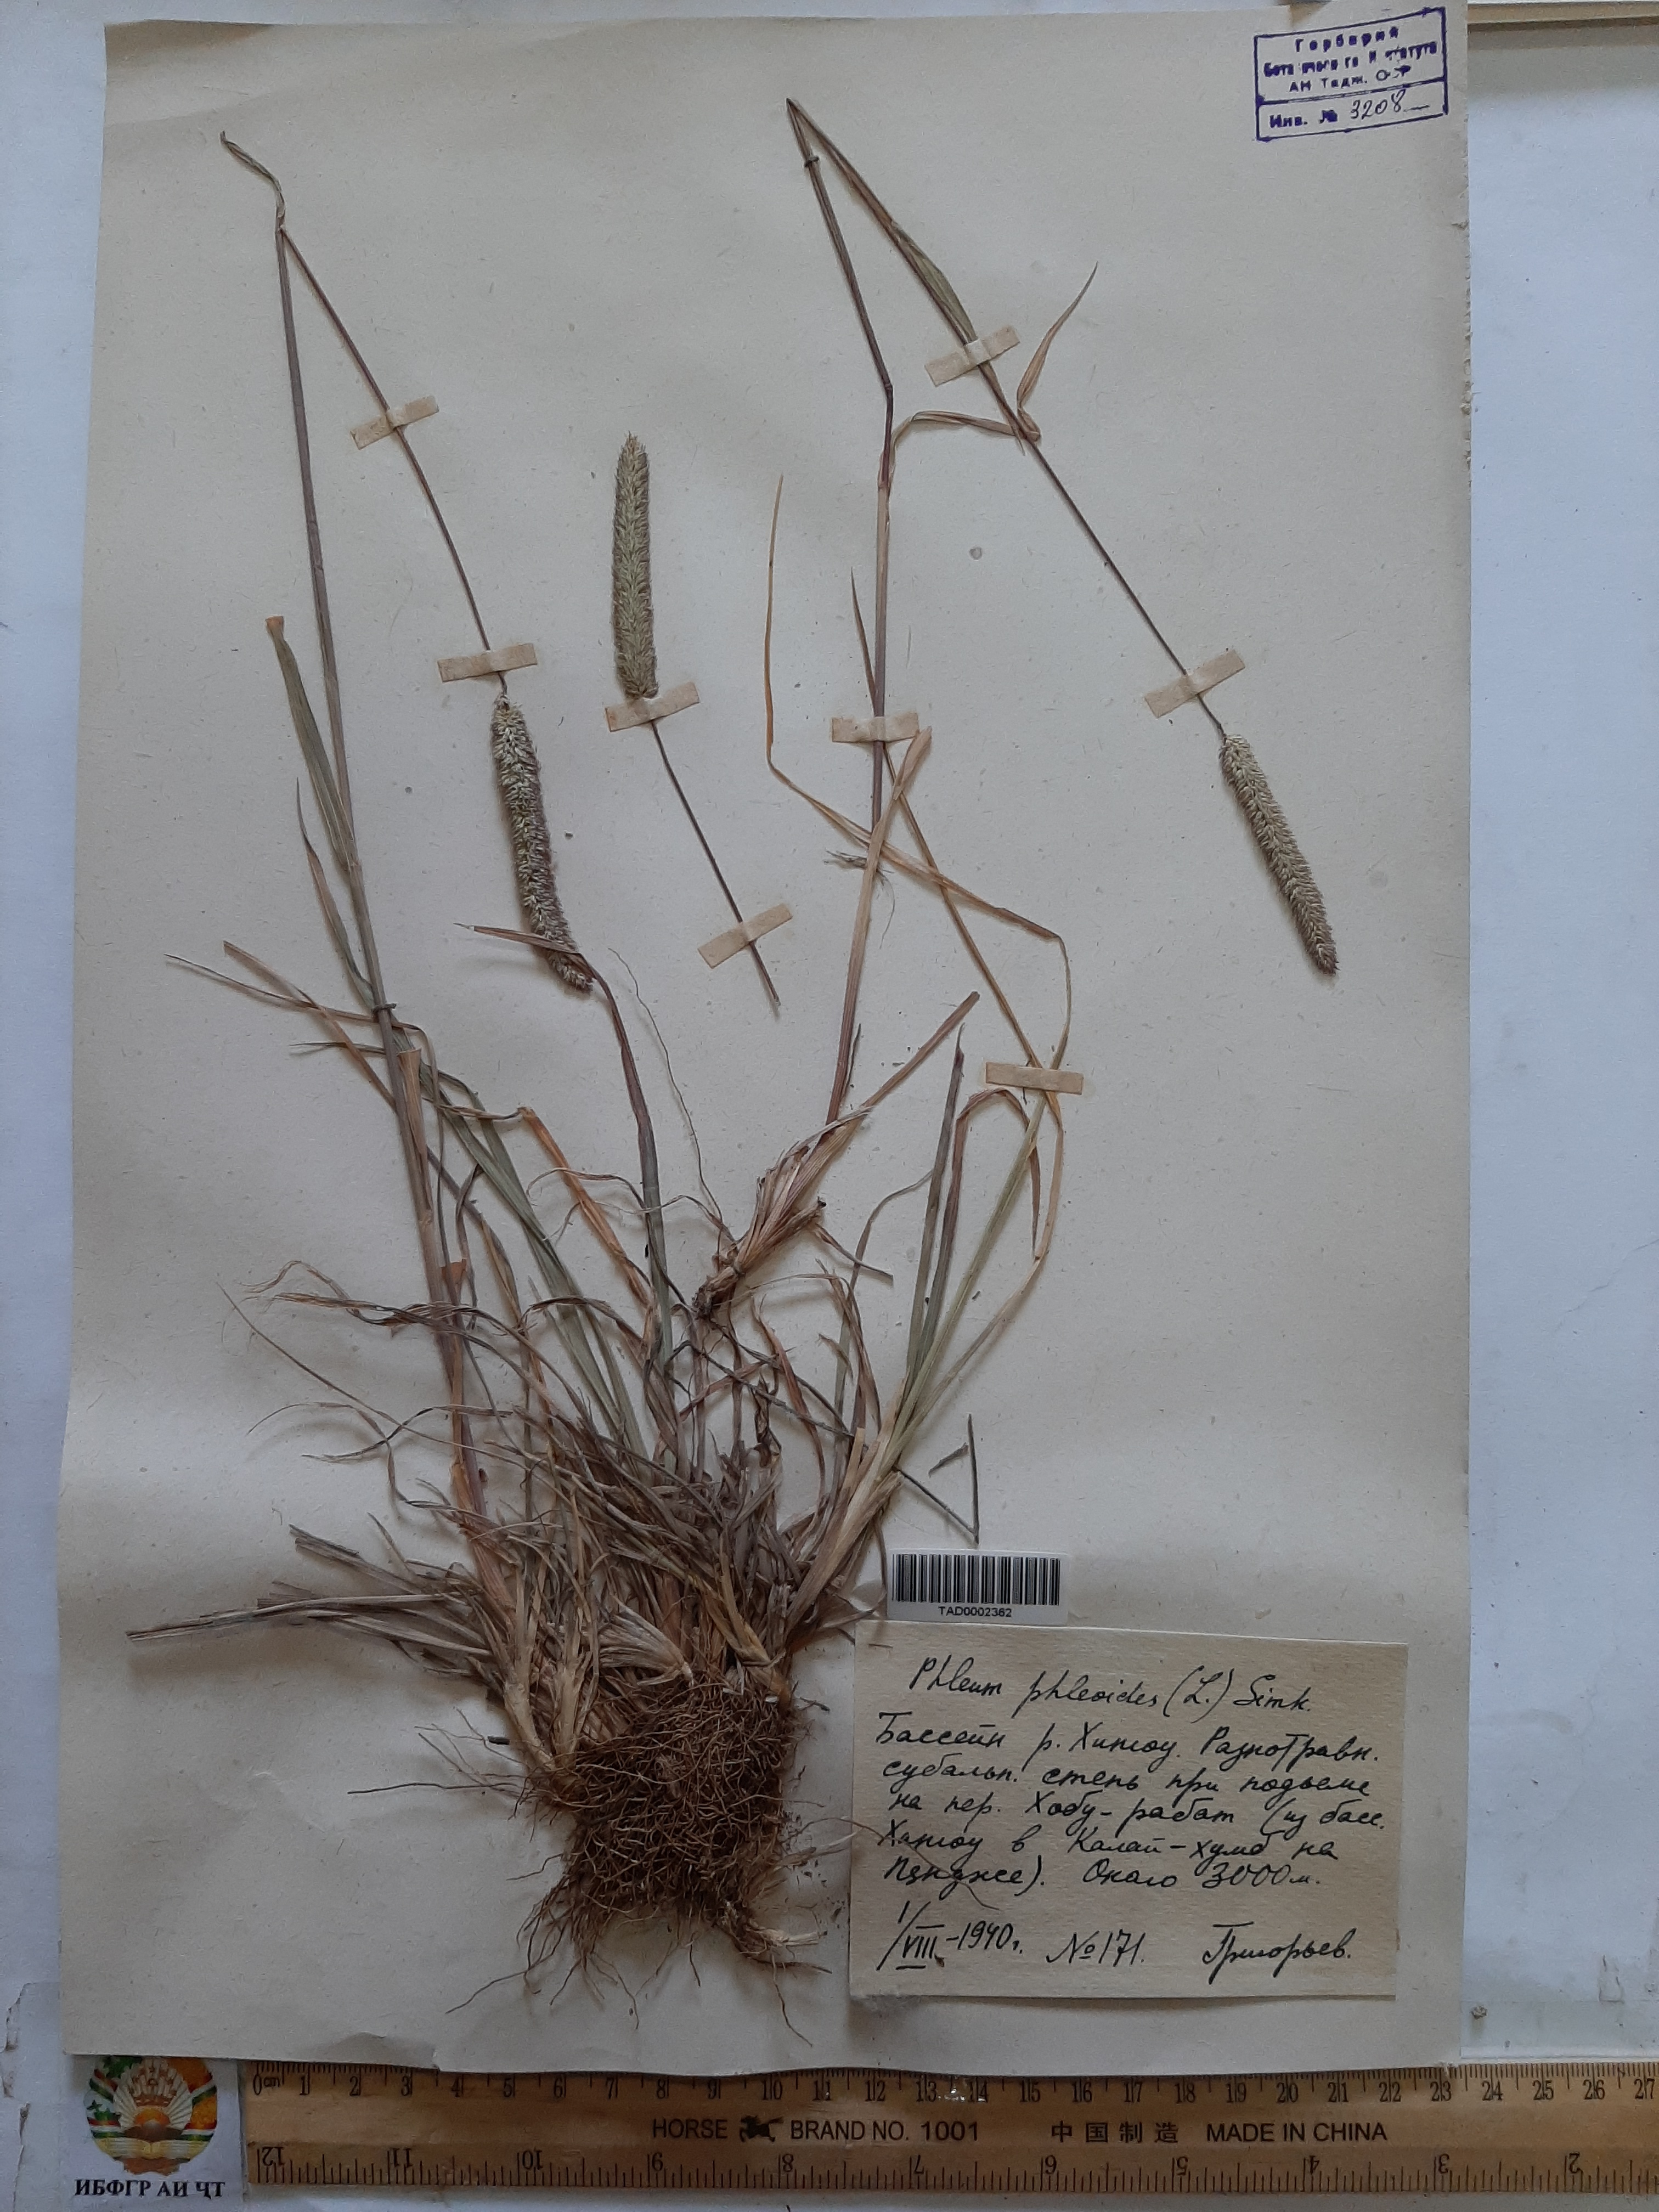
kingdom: Plantae
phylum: Tracheophyta
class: Liliopsida
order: Poales
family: Poaceae
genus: Phleum
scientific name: Phleum phleoides
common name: Purple-stem cat's-tail
